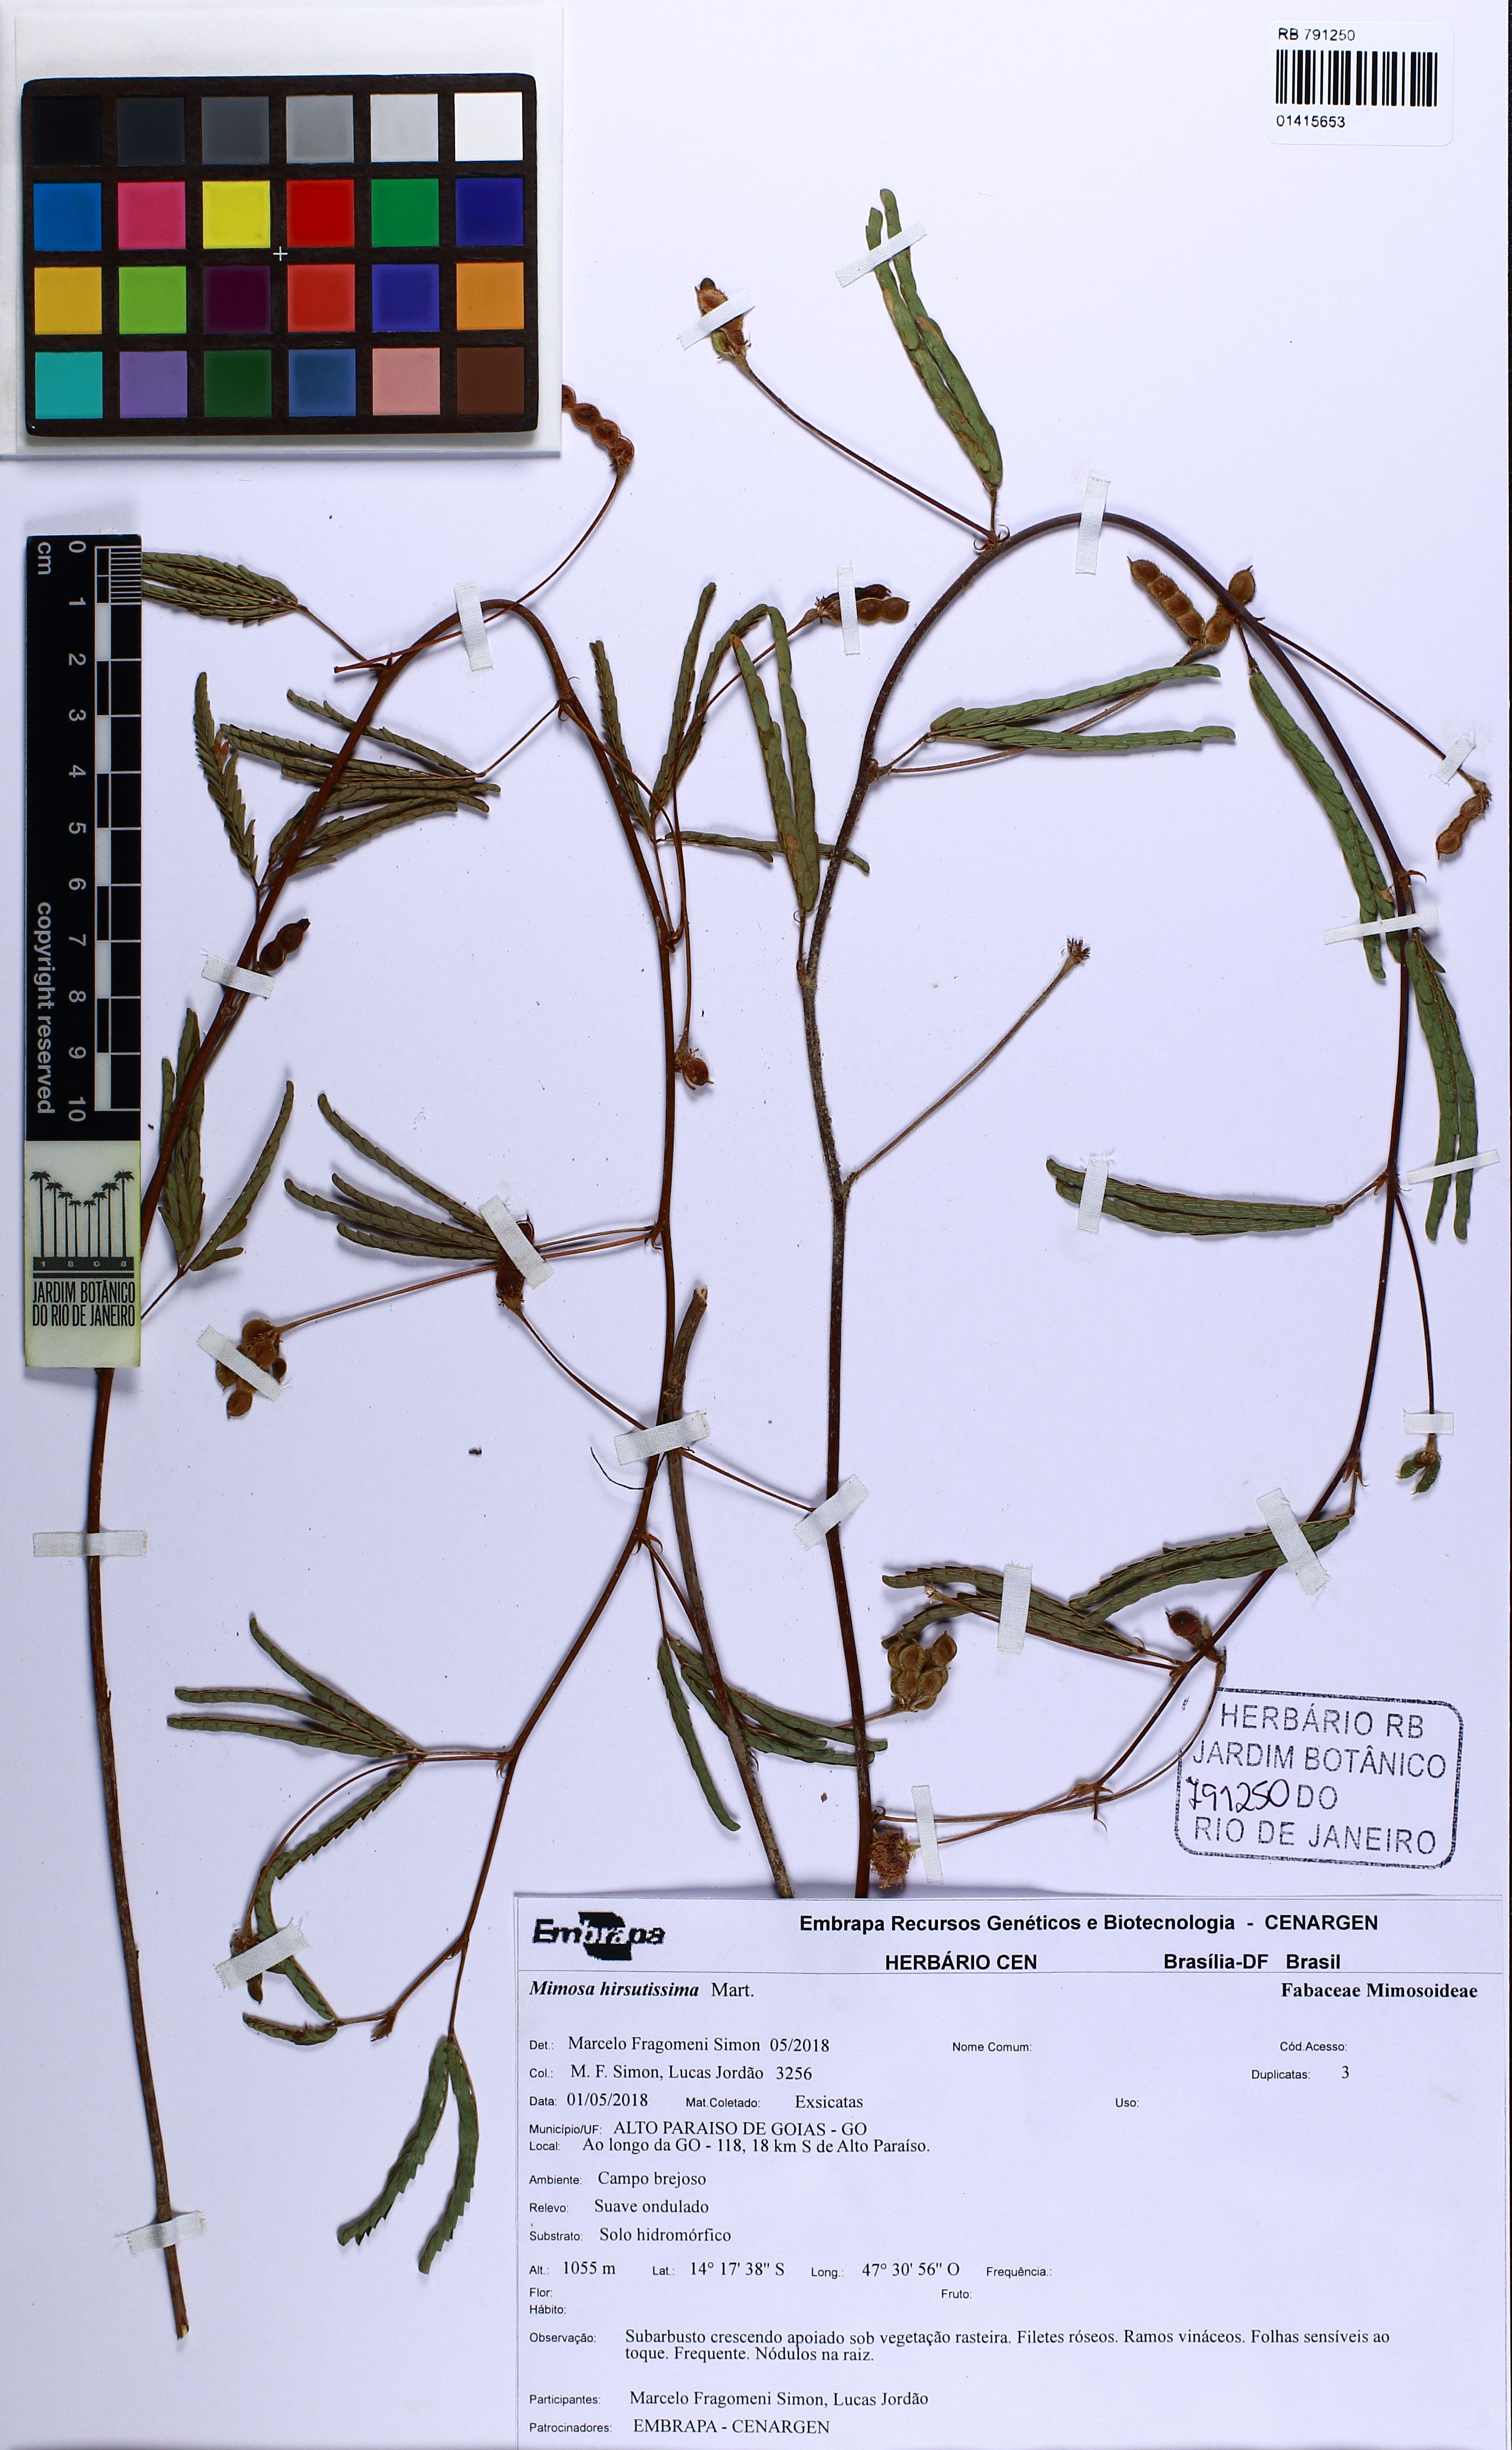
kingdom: Plantae
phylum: Tracheophyta
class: Magnoliopsida
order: Fabales
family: Fabaceae
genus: Mimosa
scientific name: Mimosa hirsutissima
